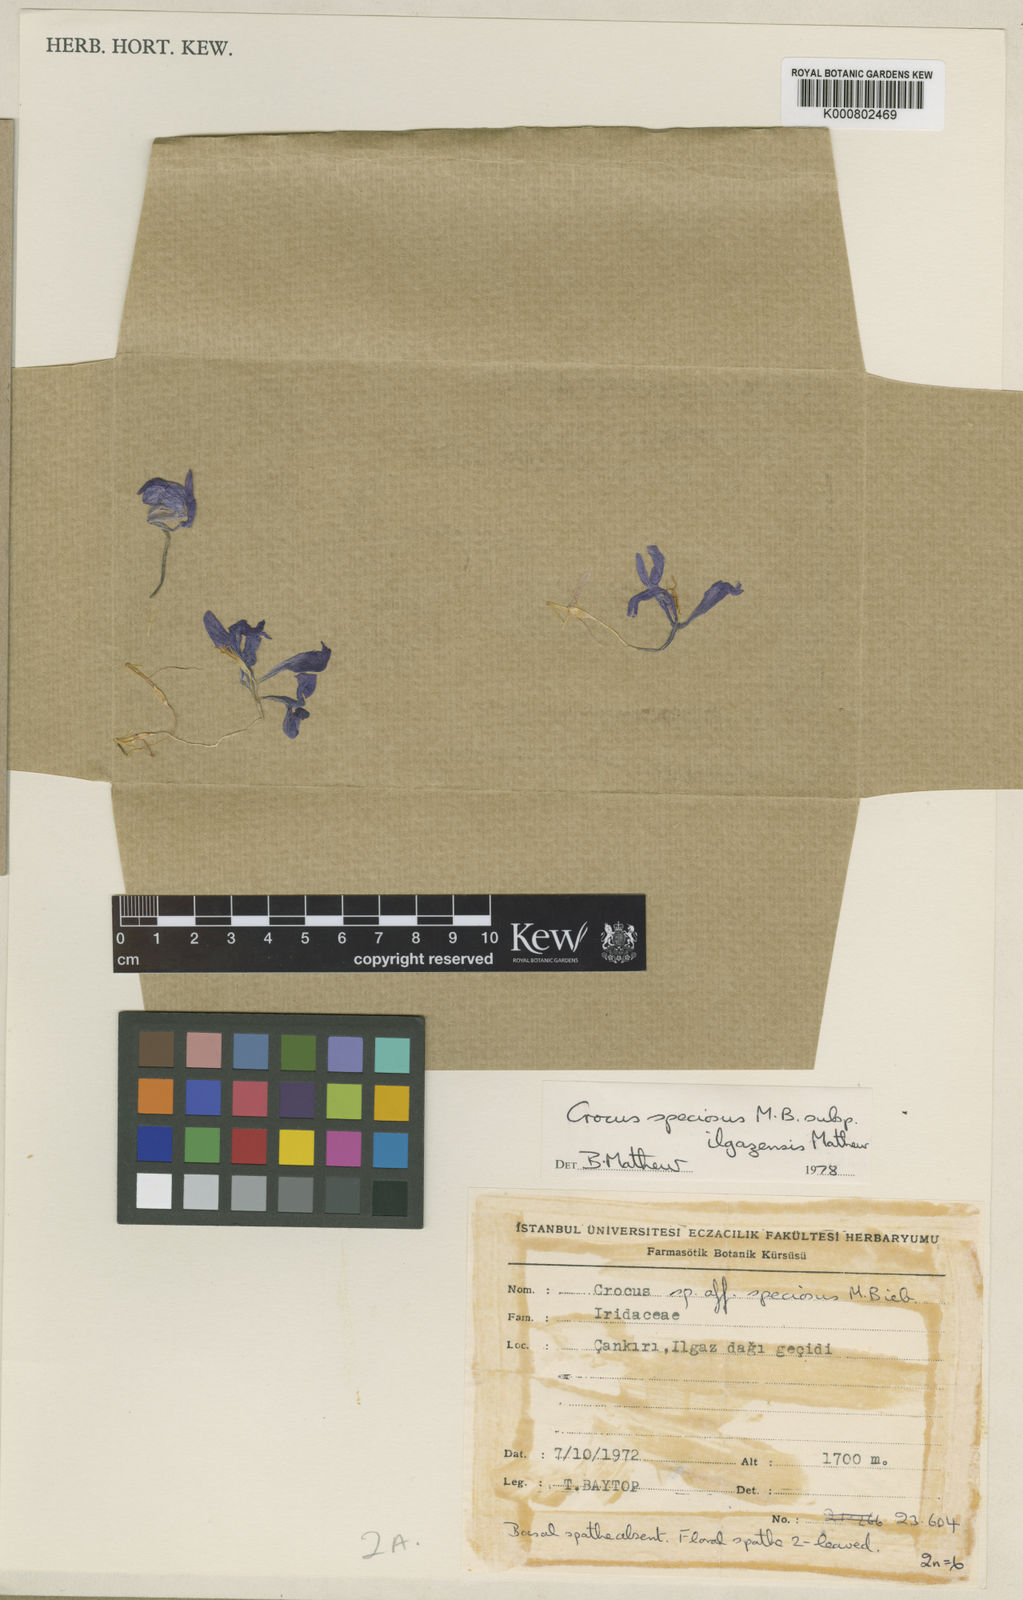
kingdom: Plantae
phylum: Tracheophyta
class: Liliopsida
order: Asparagales
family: Iridaceae
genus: Crocus
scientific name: Crocus ilgazensis
